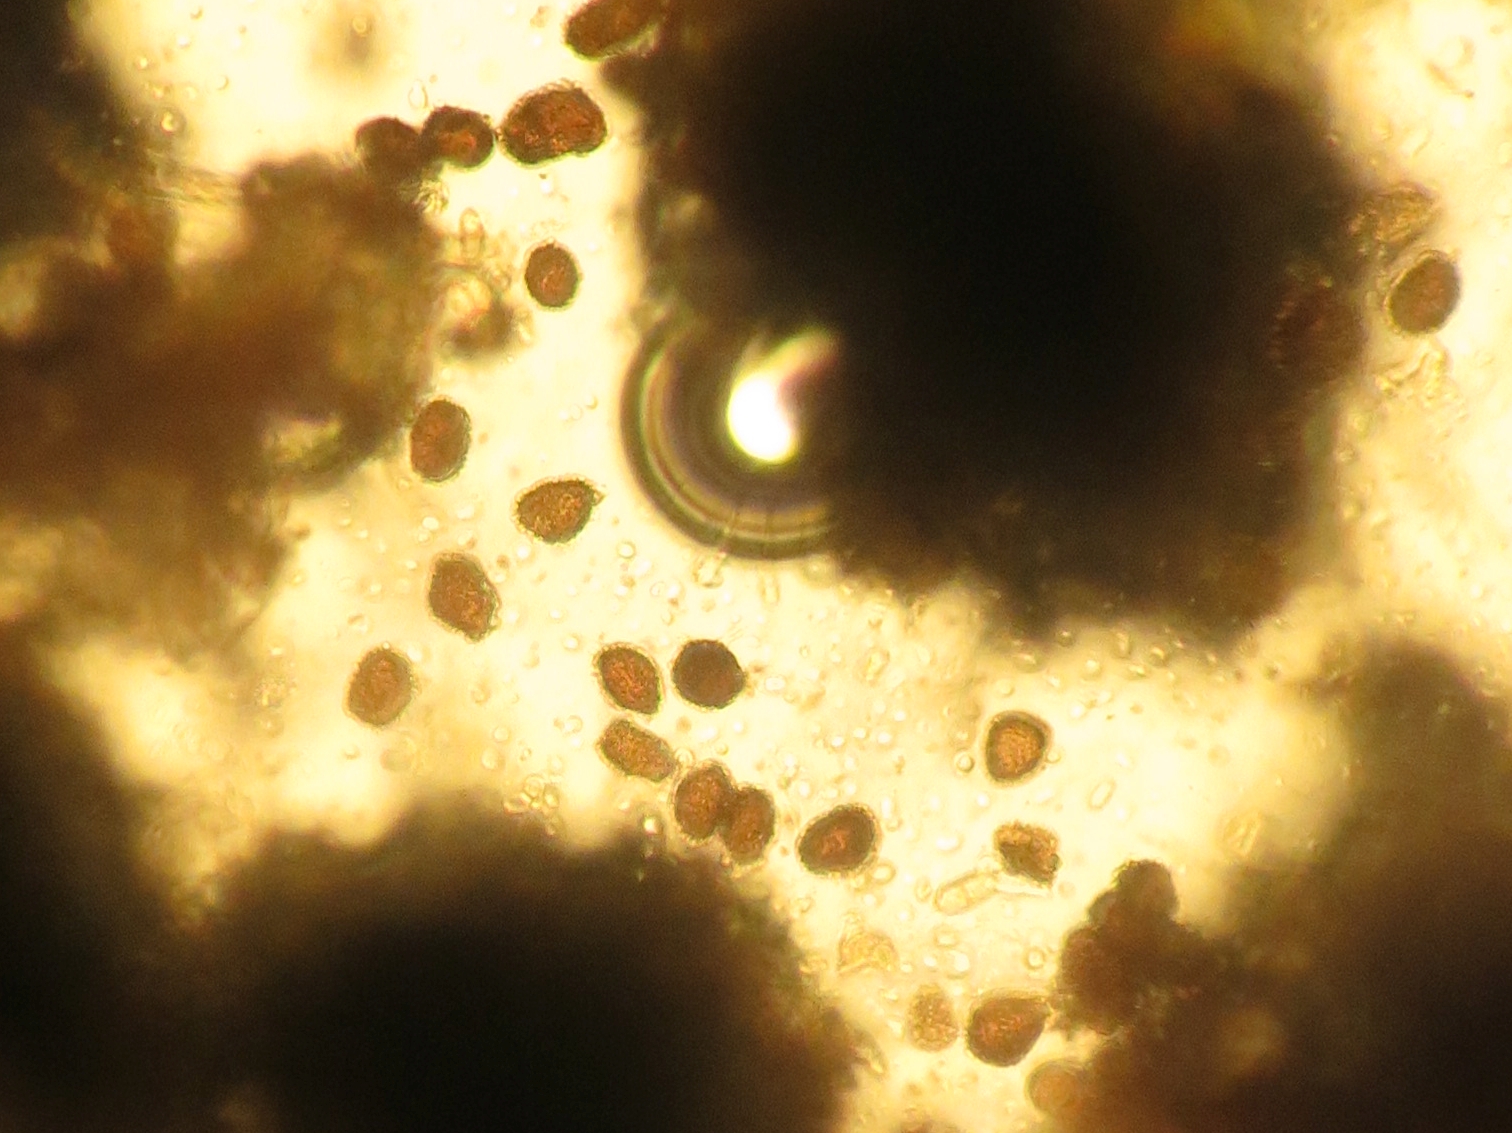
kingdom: Fungi
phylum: Basidiomycota
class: Ustilaginomycetes
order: Ustilaginales
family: Anthracoideaceae
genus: Anthracoidea
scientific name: Anthracoidea subinclusa
